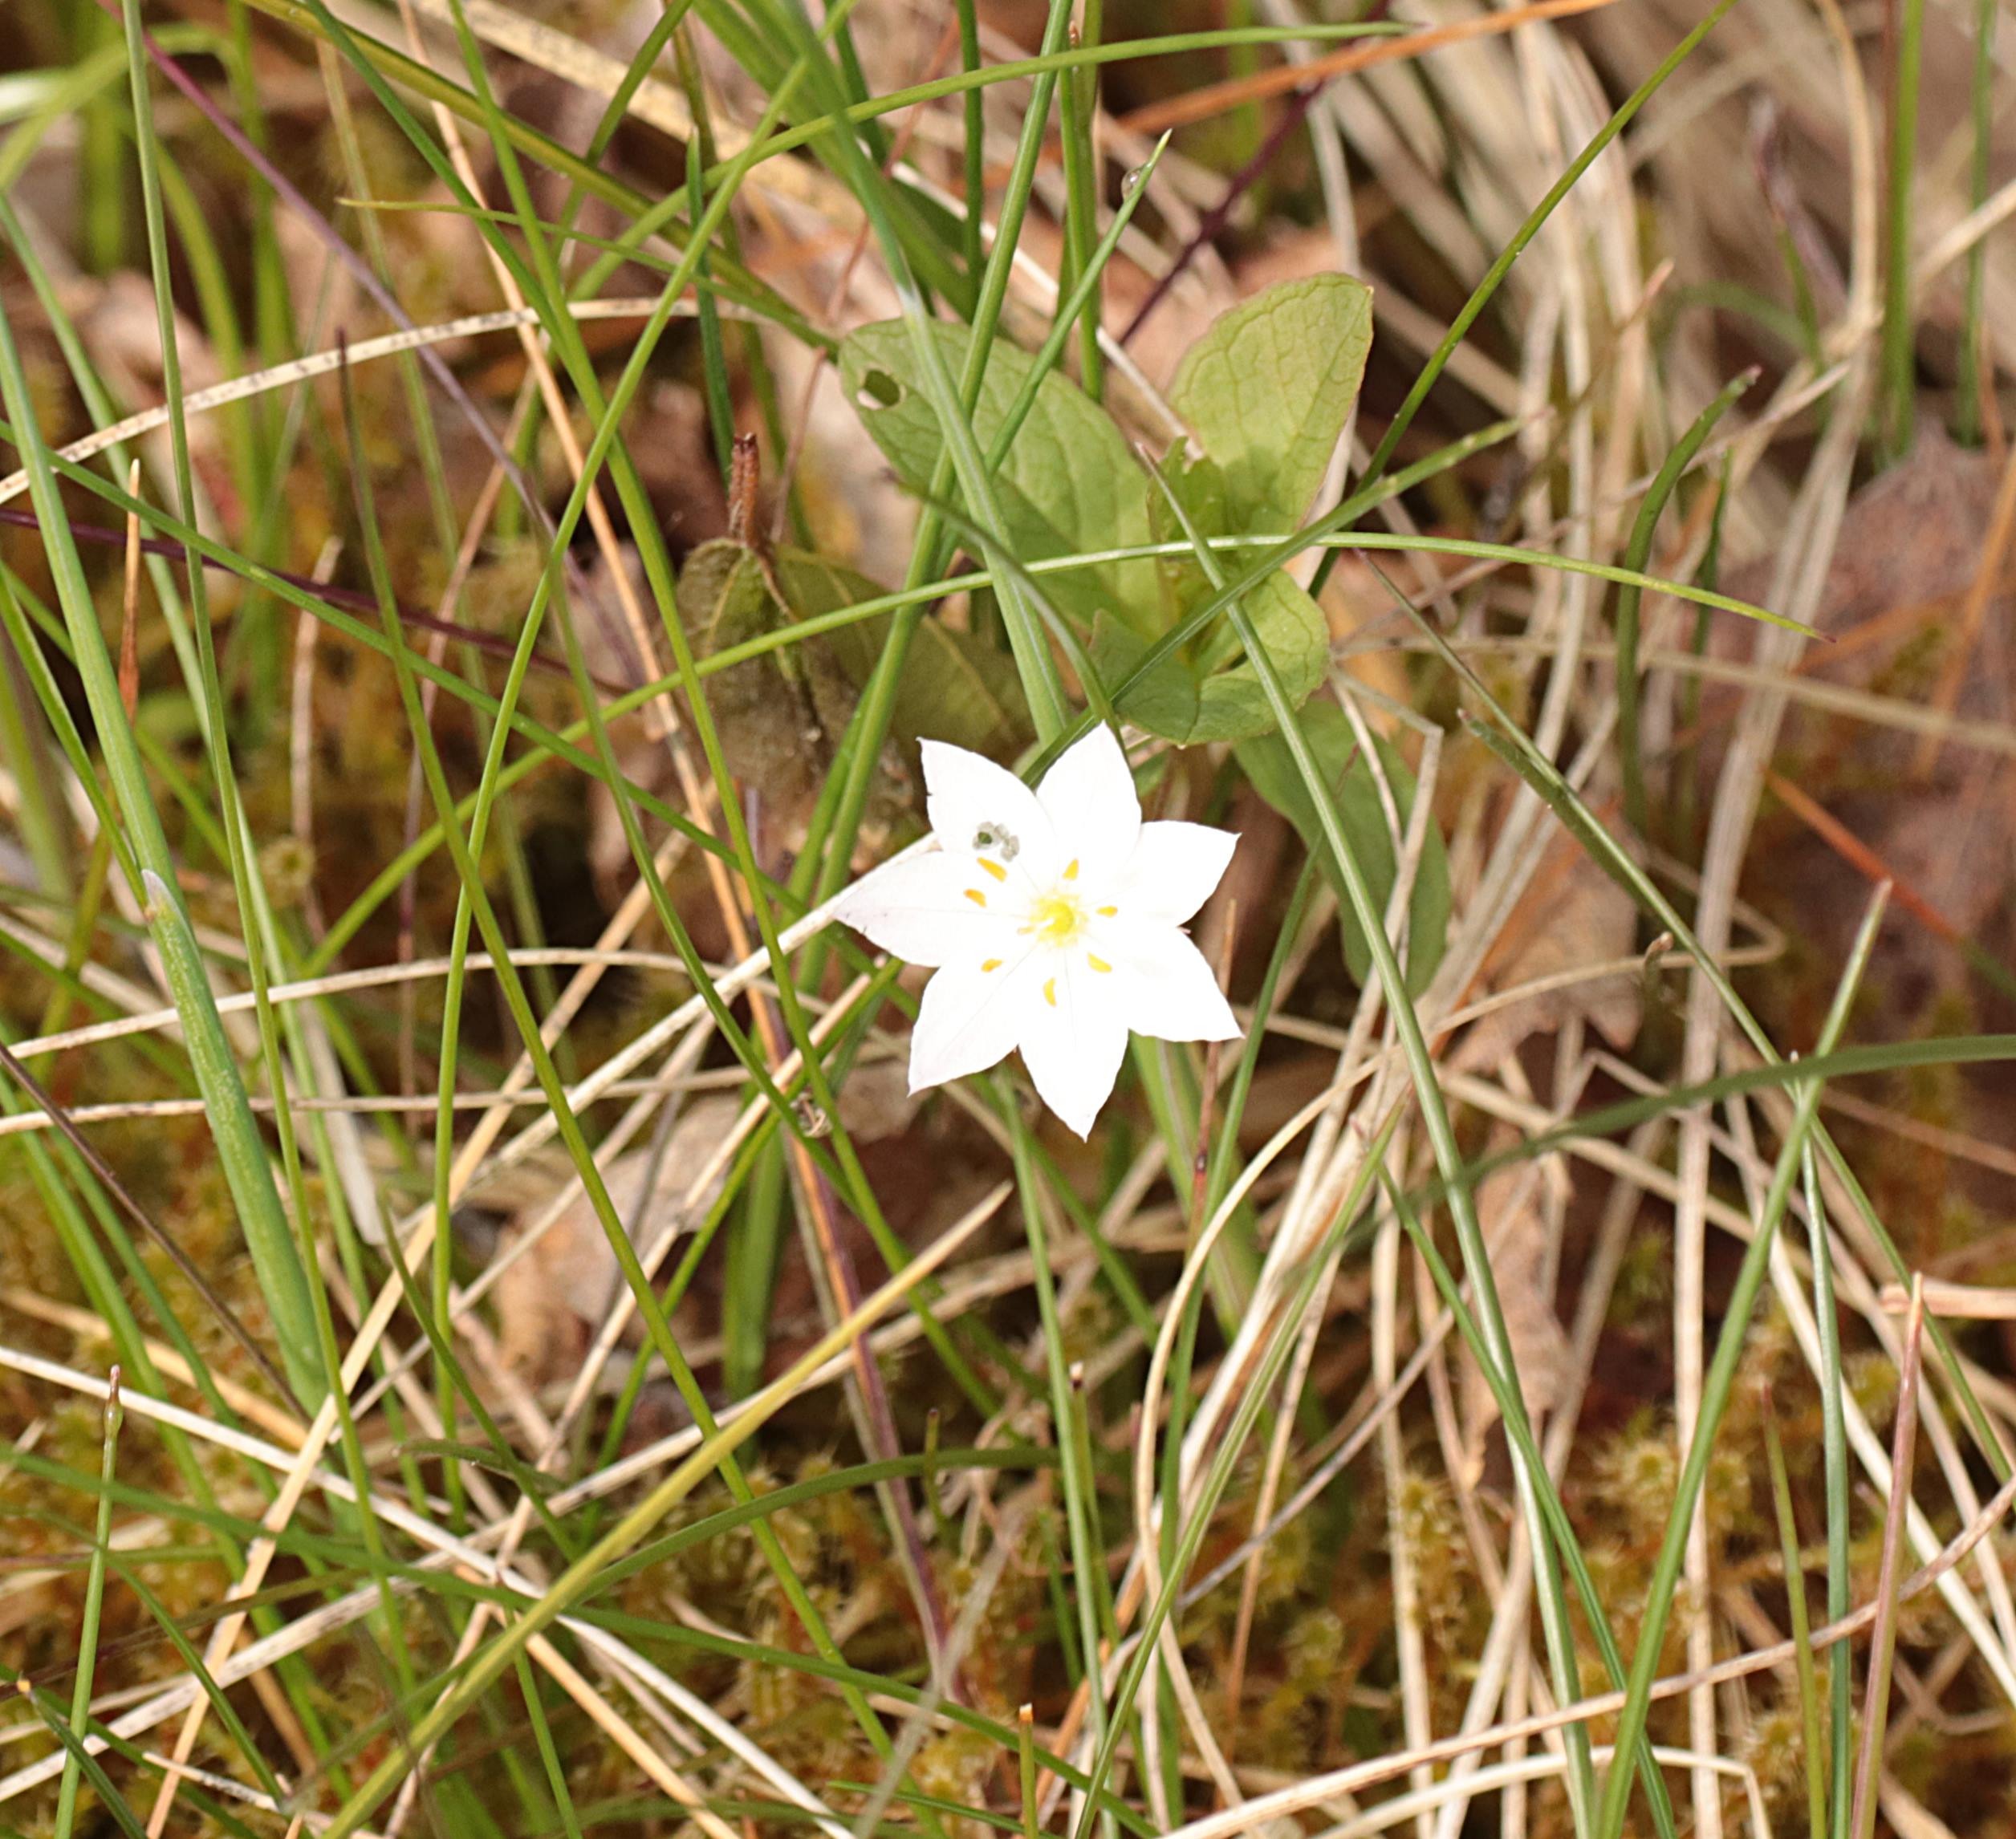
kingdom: Plantae
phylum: Tracheophyta
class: Magnoliopsida
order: Ericales
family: Primulaceae
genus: Lysimachia
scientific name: Lysimachia europaea
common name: Skovstjerne
